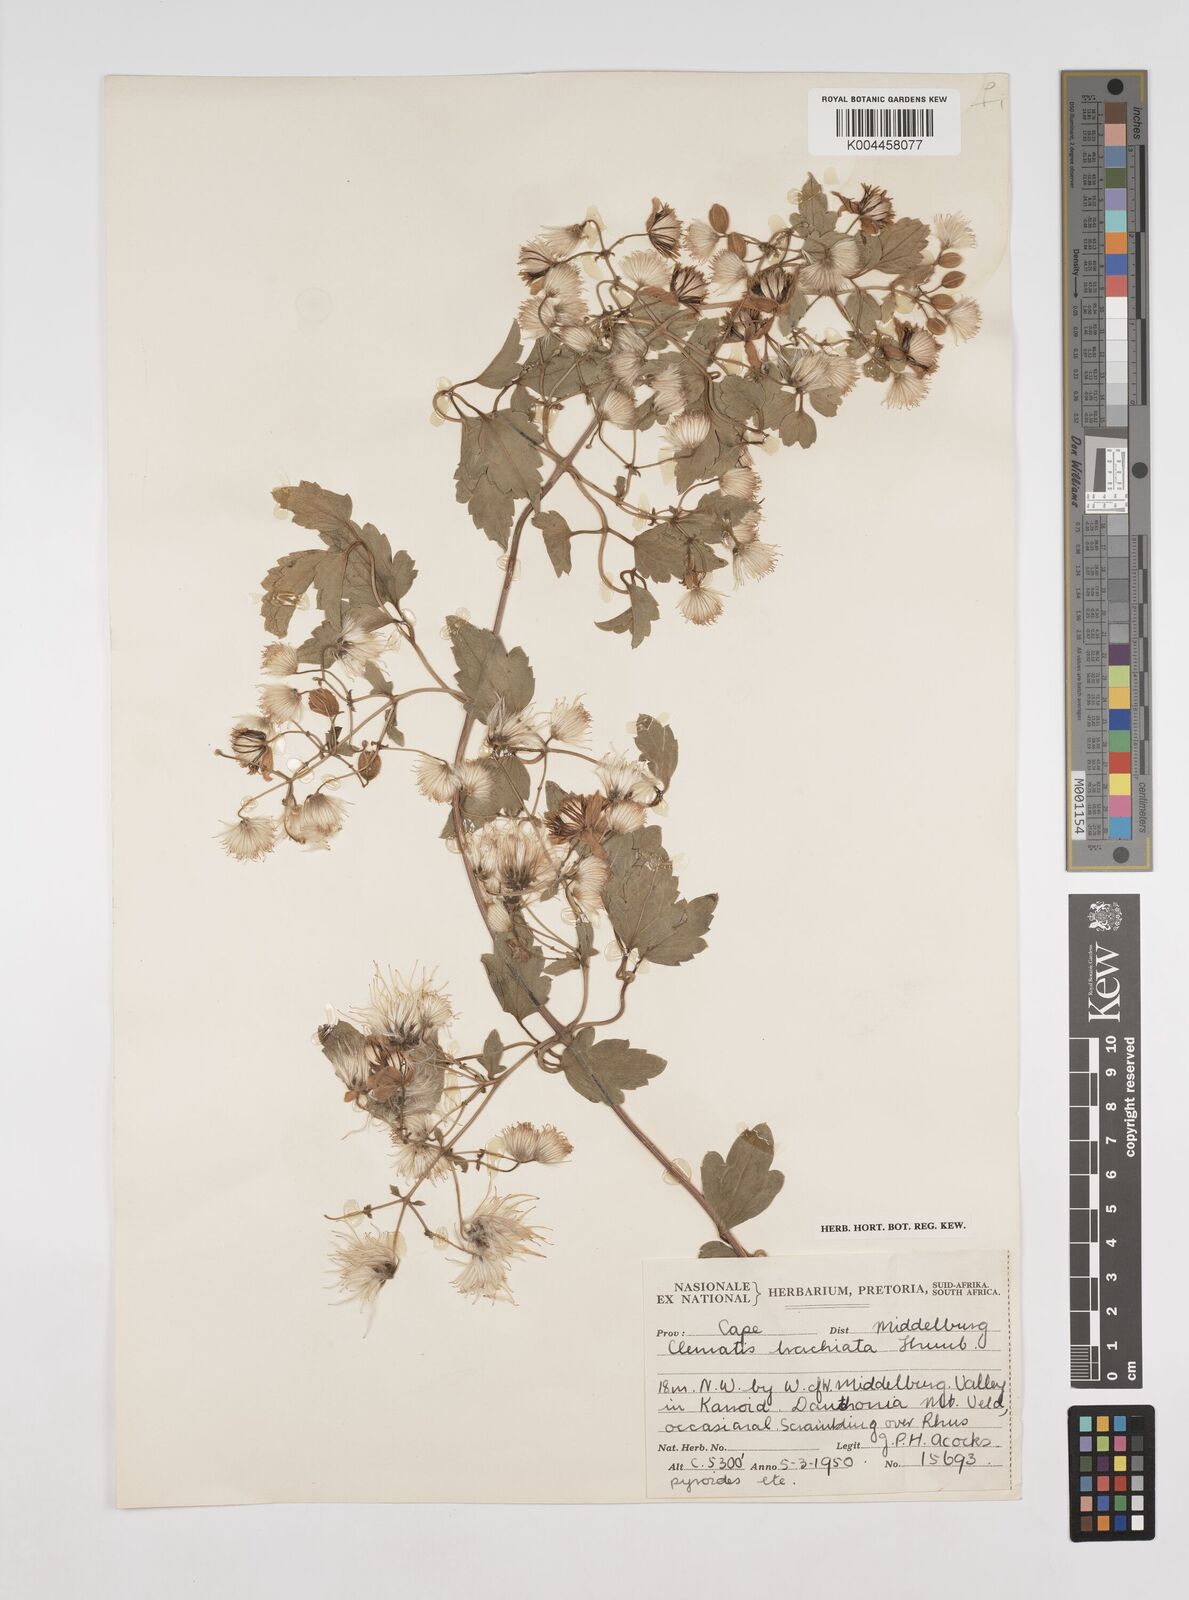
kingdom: Plantae
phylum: Tracheophyta
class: Magnoliopsida
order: Ranunculales
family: Ranunculaceae
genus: Clematis
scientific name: Clematis brachiata
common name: Traveler's-joy
